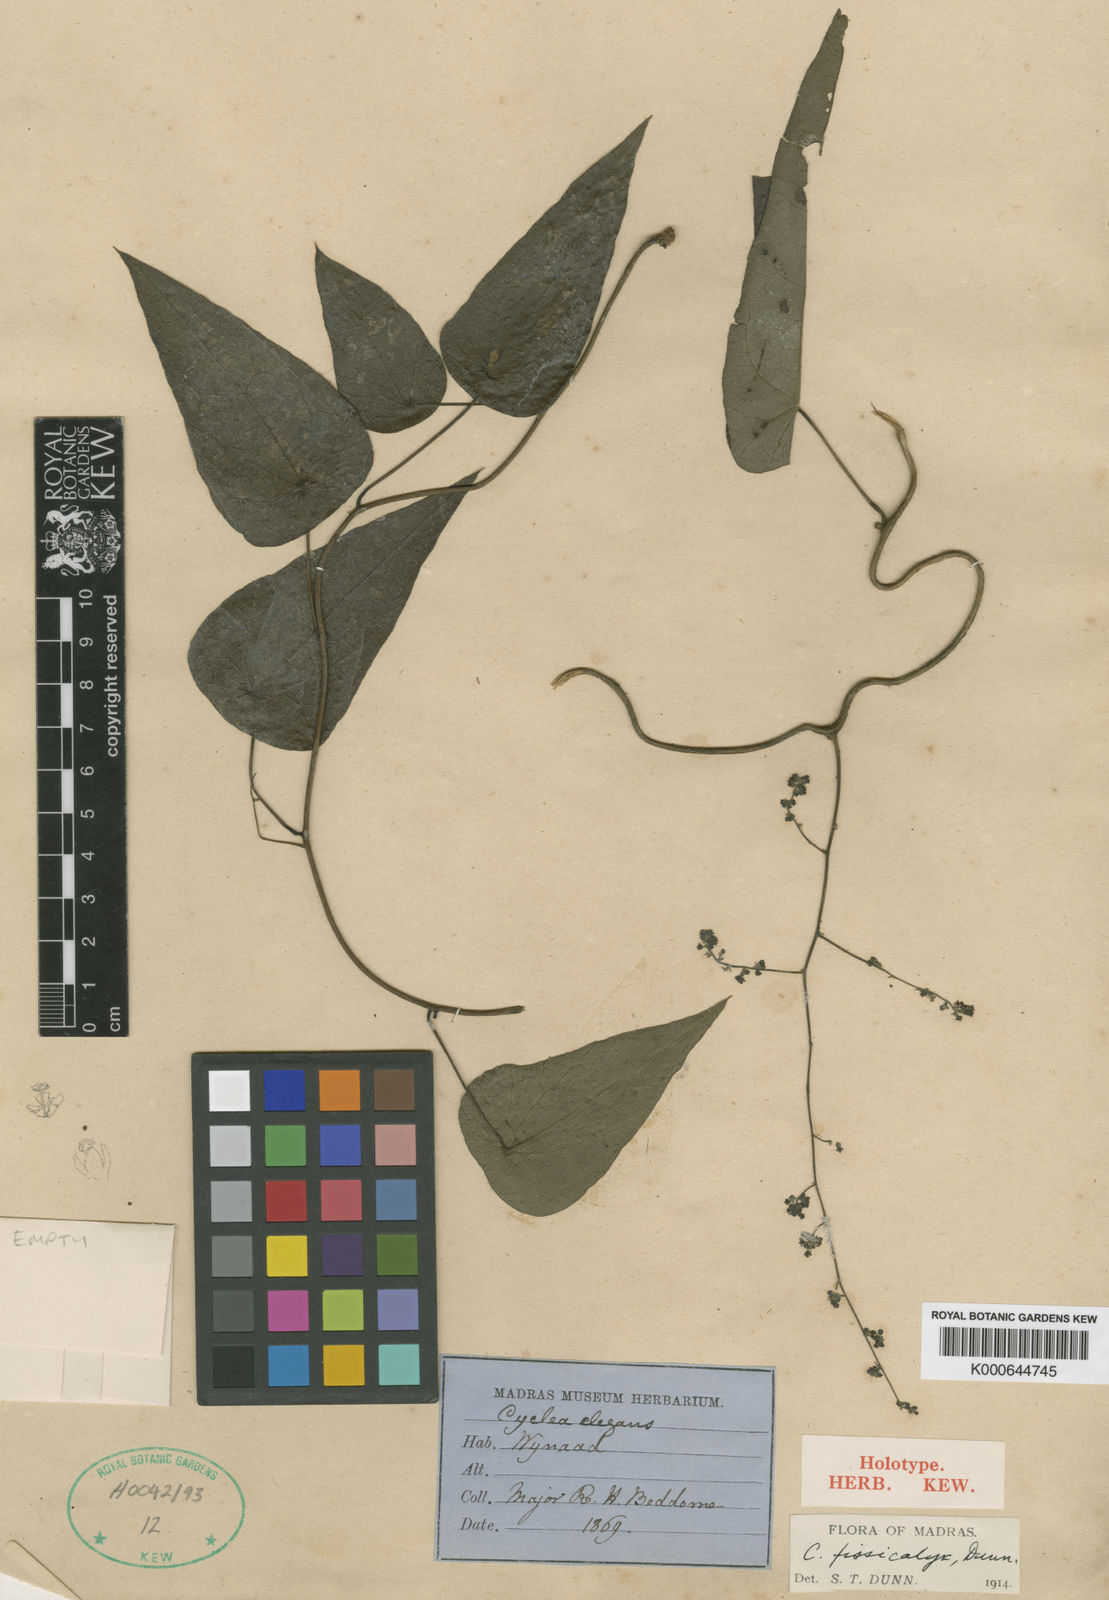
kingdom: Plantae
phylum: Tracheophyta
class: Magnoliopsida
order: Ranunculales
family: Menispermaceae
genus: Cyclea
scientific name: Cyclea fissicalyx
